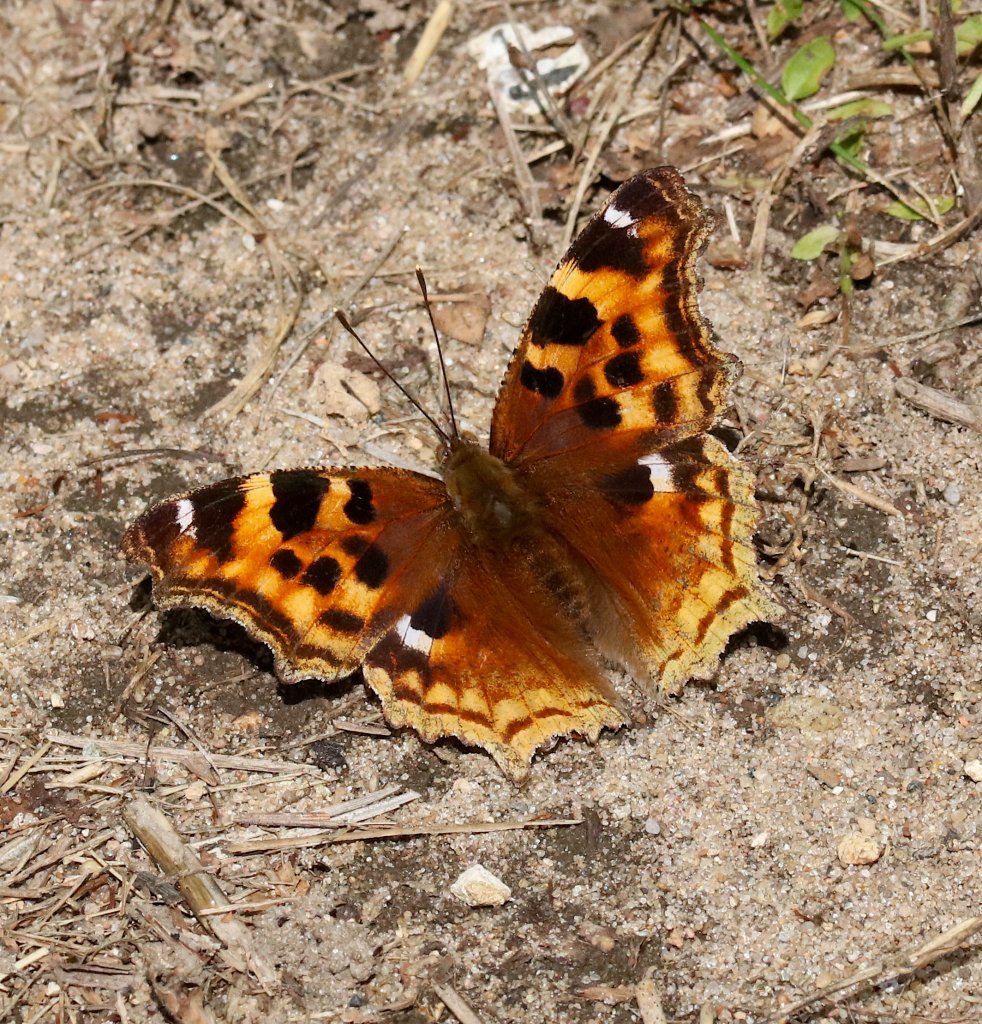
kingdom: Animalia
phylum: Arthropoda
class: Insecta
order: Lepidoptera
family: Nymphalidae
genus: Polygonia
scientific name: Polygonia vaualbum
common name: Compton Tortoiseshell
